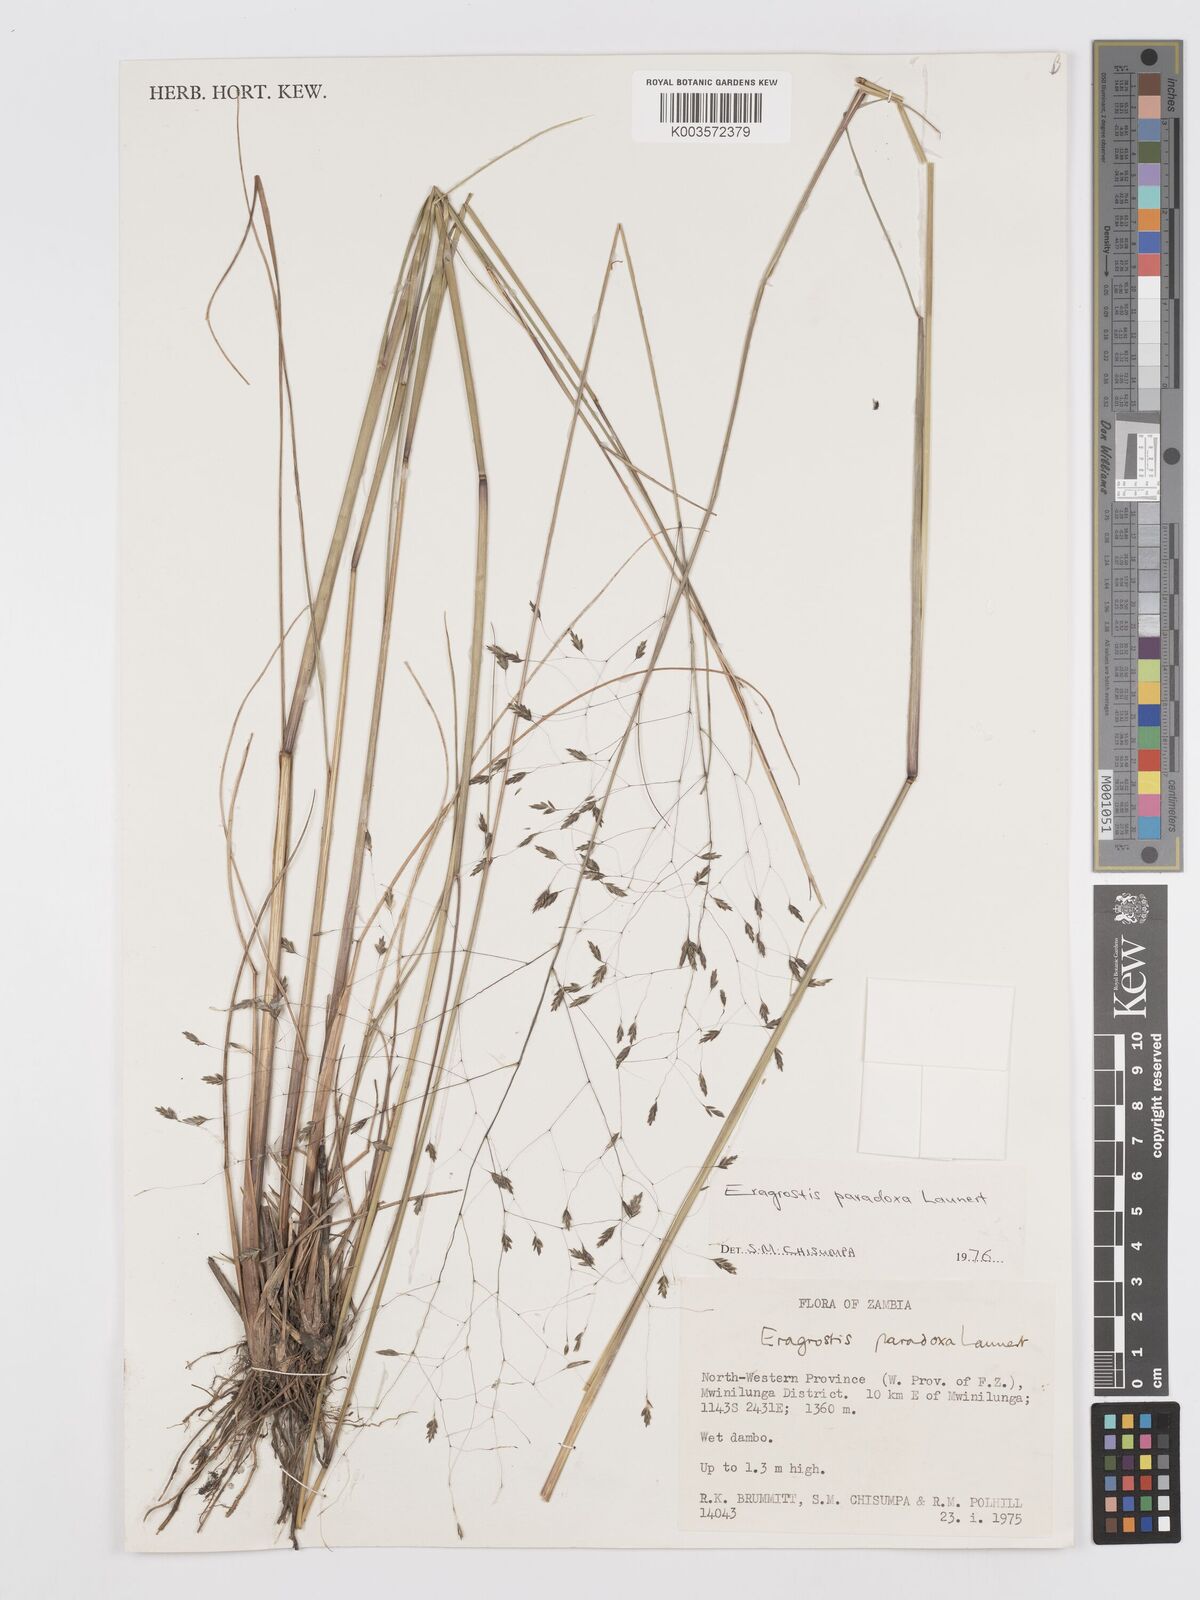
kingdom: Plantae
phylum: Tracheophyta
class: Liliopsida
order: Poales
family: Poaceae
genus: Eragrostis
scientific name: Eragrostis milnei
